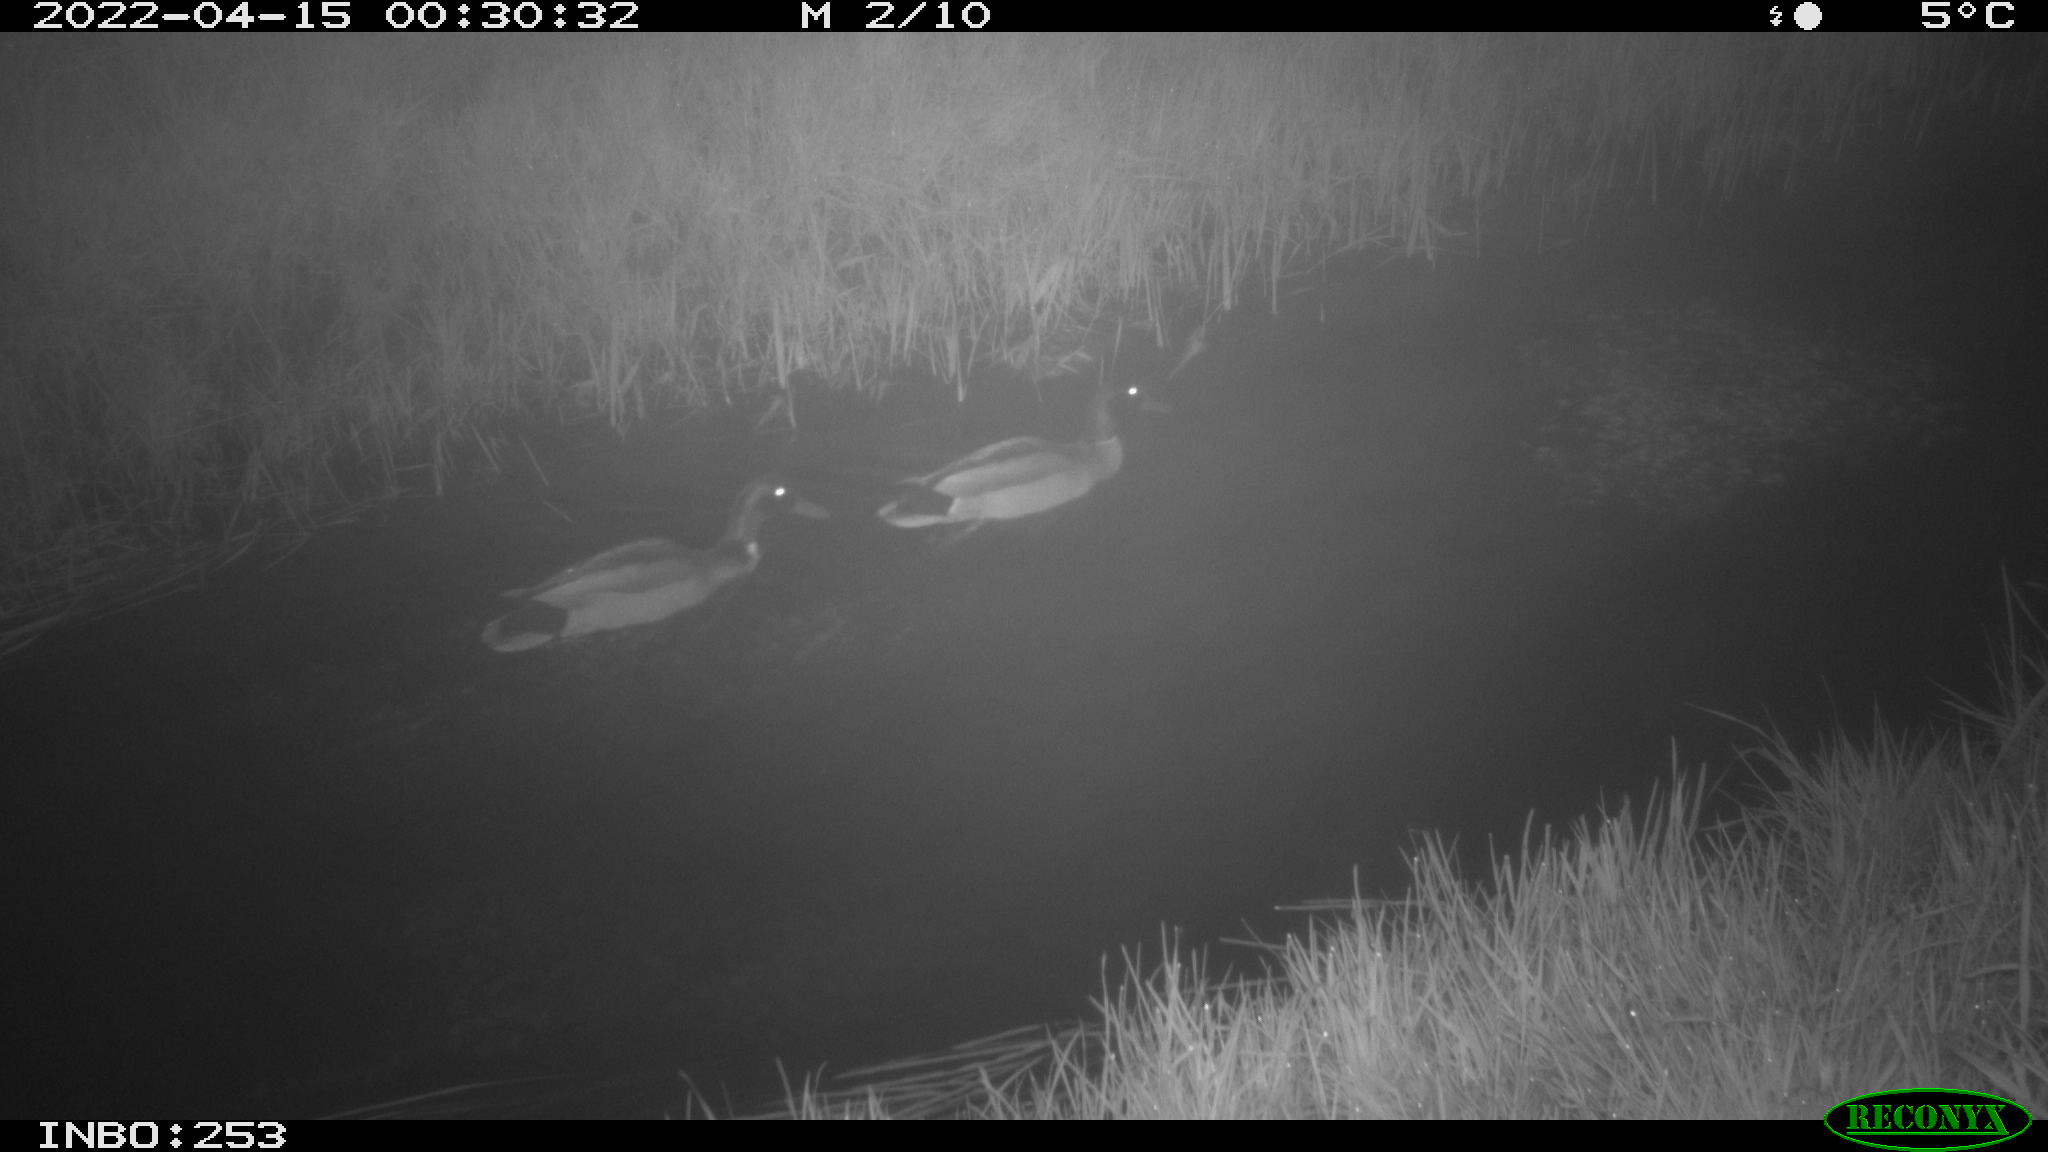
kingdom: Animalia
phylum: Chordata
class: Aves
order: Anseriformes
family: Anatidae
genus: Anas
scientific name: Anas platyrhynchos
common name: Mallard
